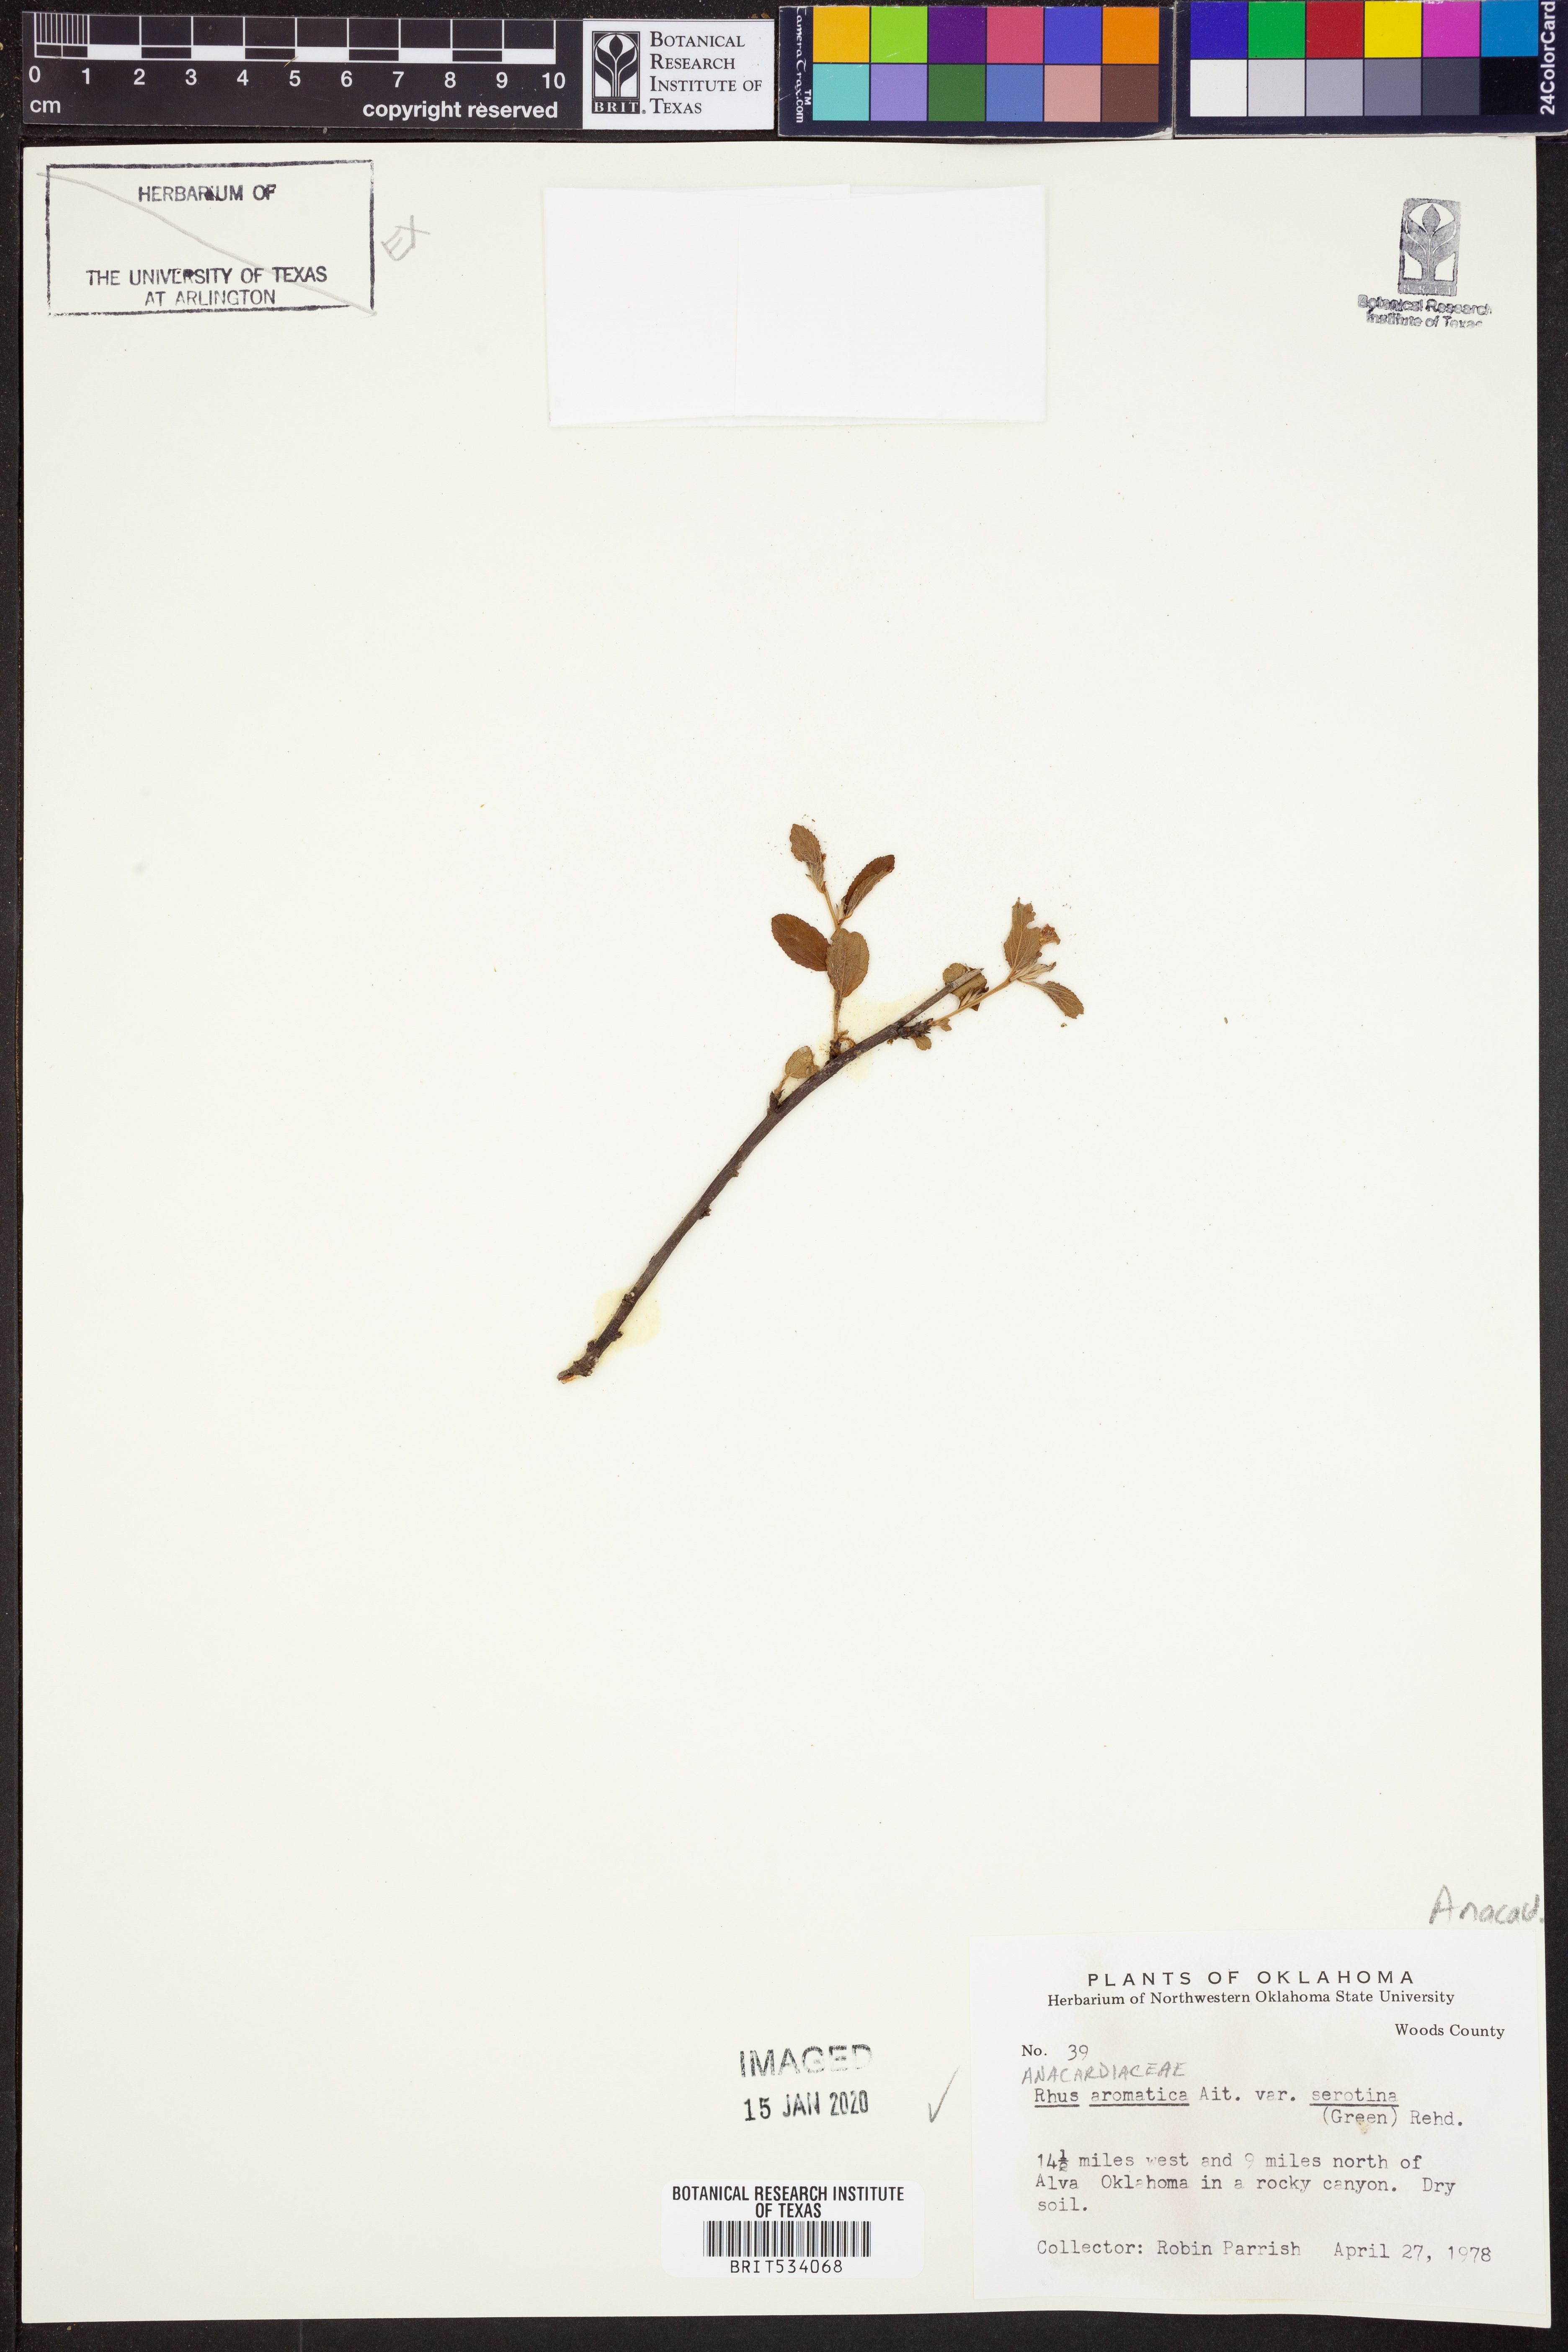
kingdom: Plantae
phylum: Tracheophyta
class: Magnoliopsida
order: Sapindales
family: Anacardiaceae
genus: Rhus
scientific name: Rhus aromatica
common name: Aromatic sumac
